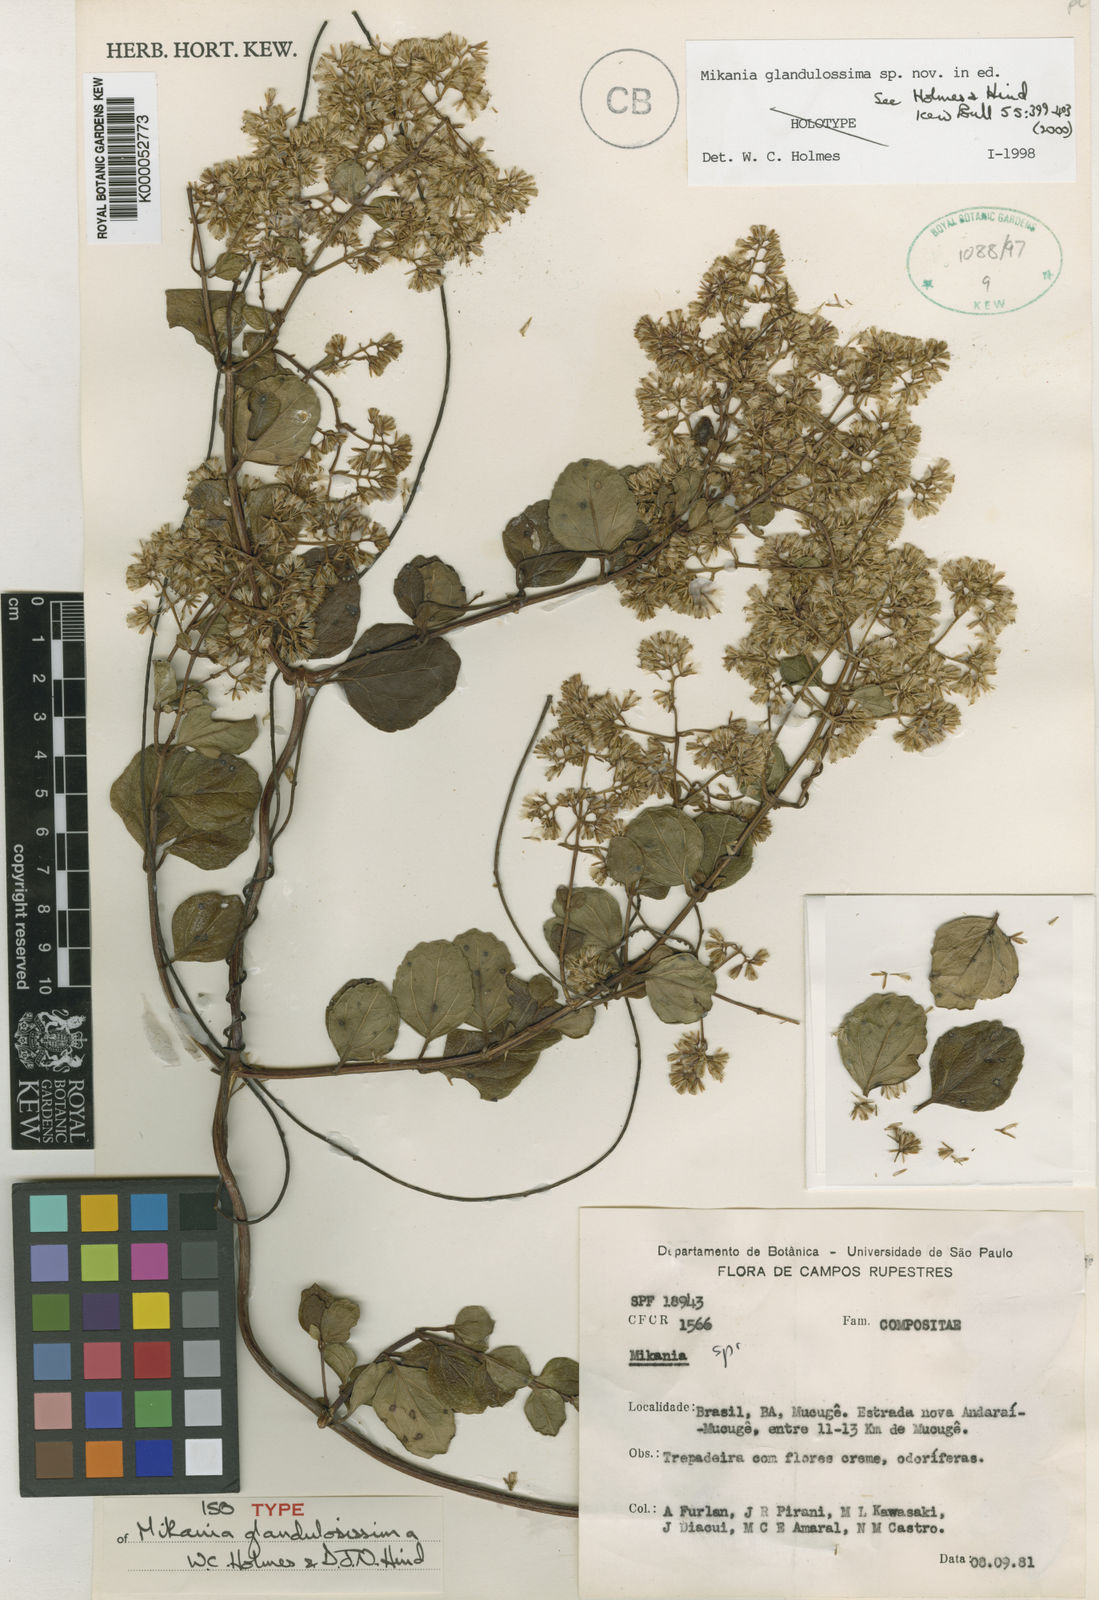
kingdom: Plantae
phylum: Tracheophyta
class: Magnoliopsida
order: Asterales
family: Asteraceae
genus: Mikania
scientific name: Mikania glandulosissima
